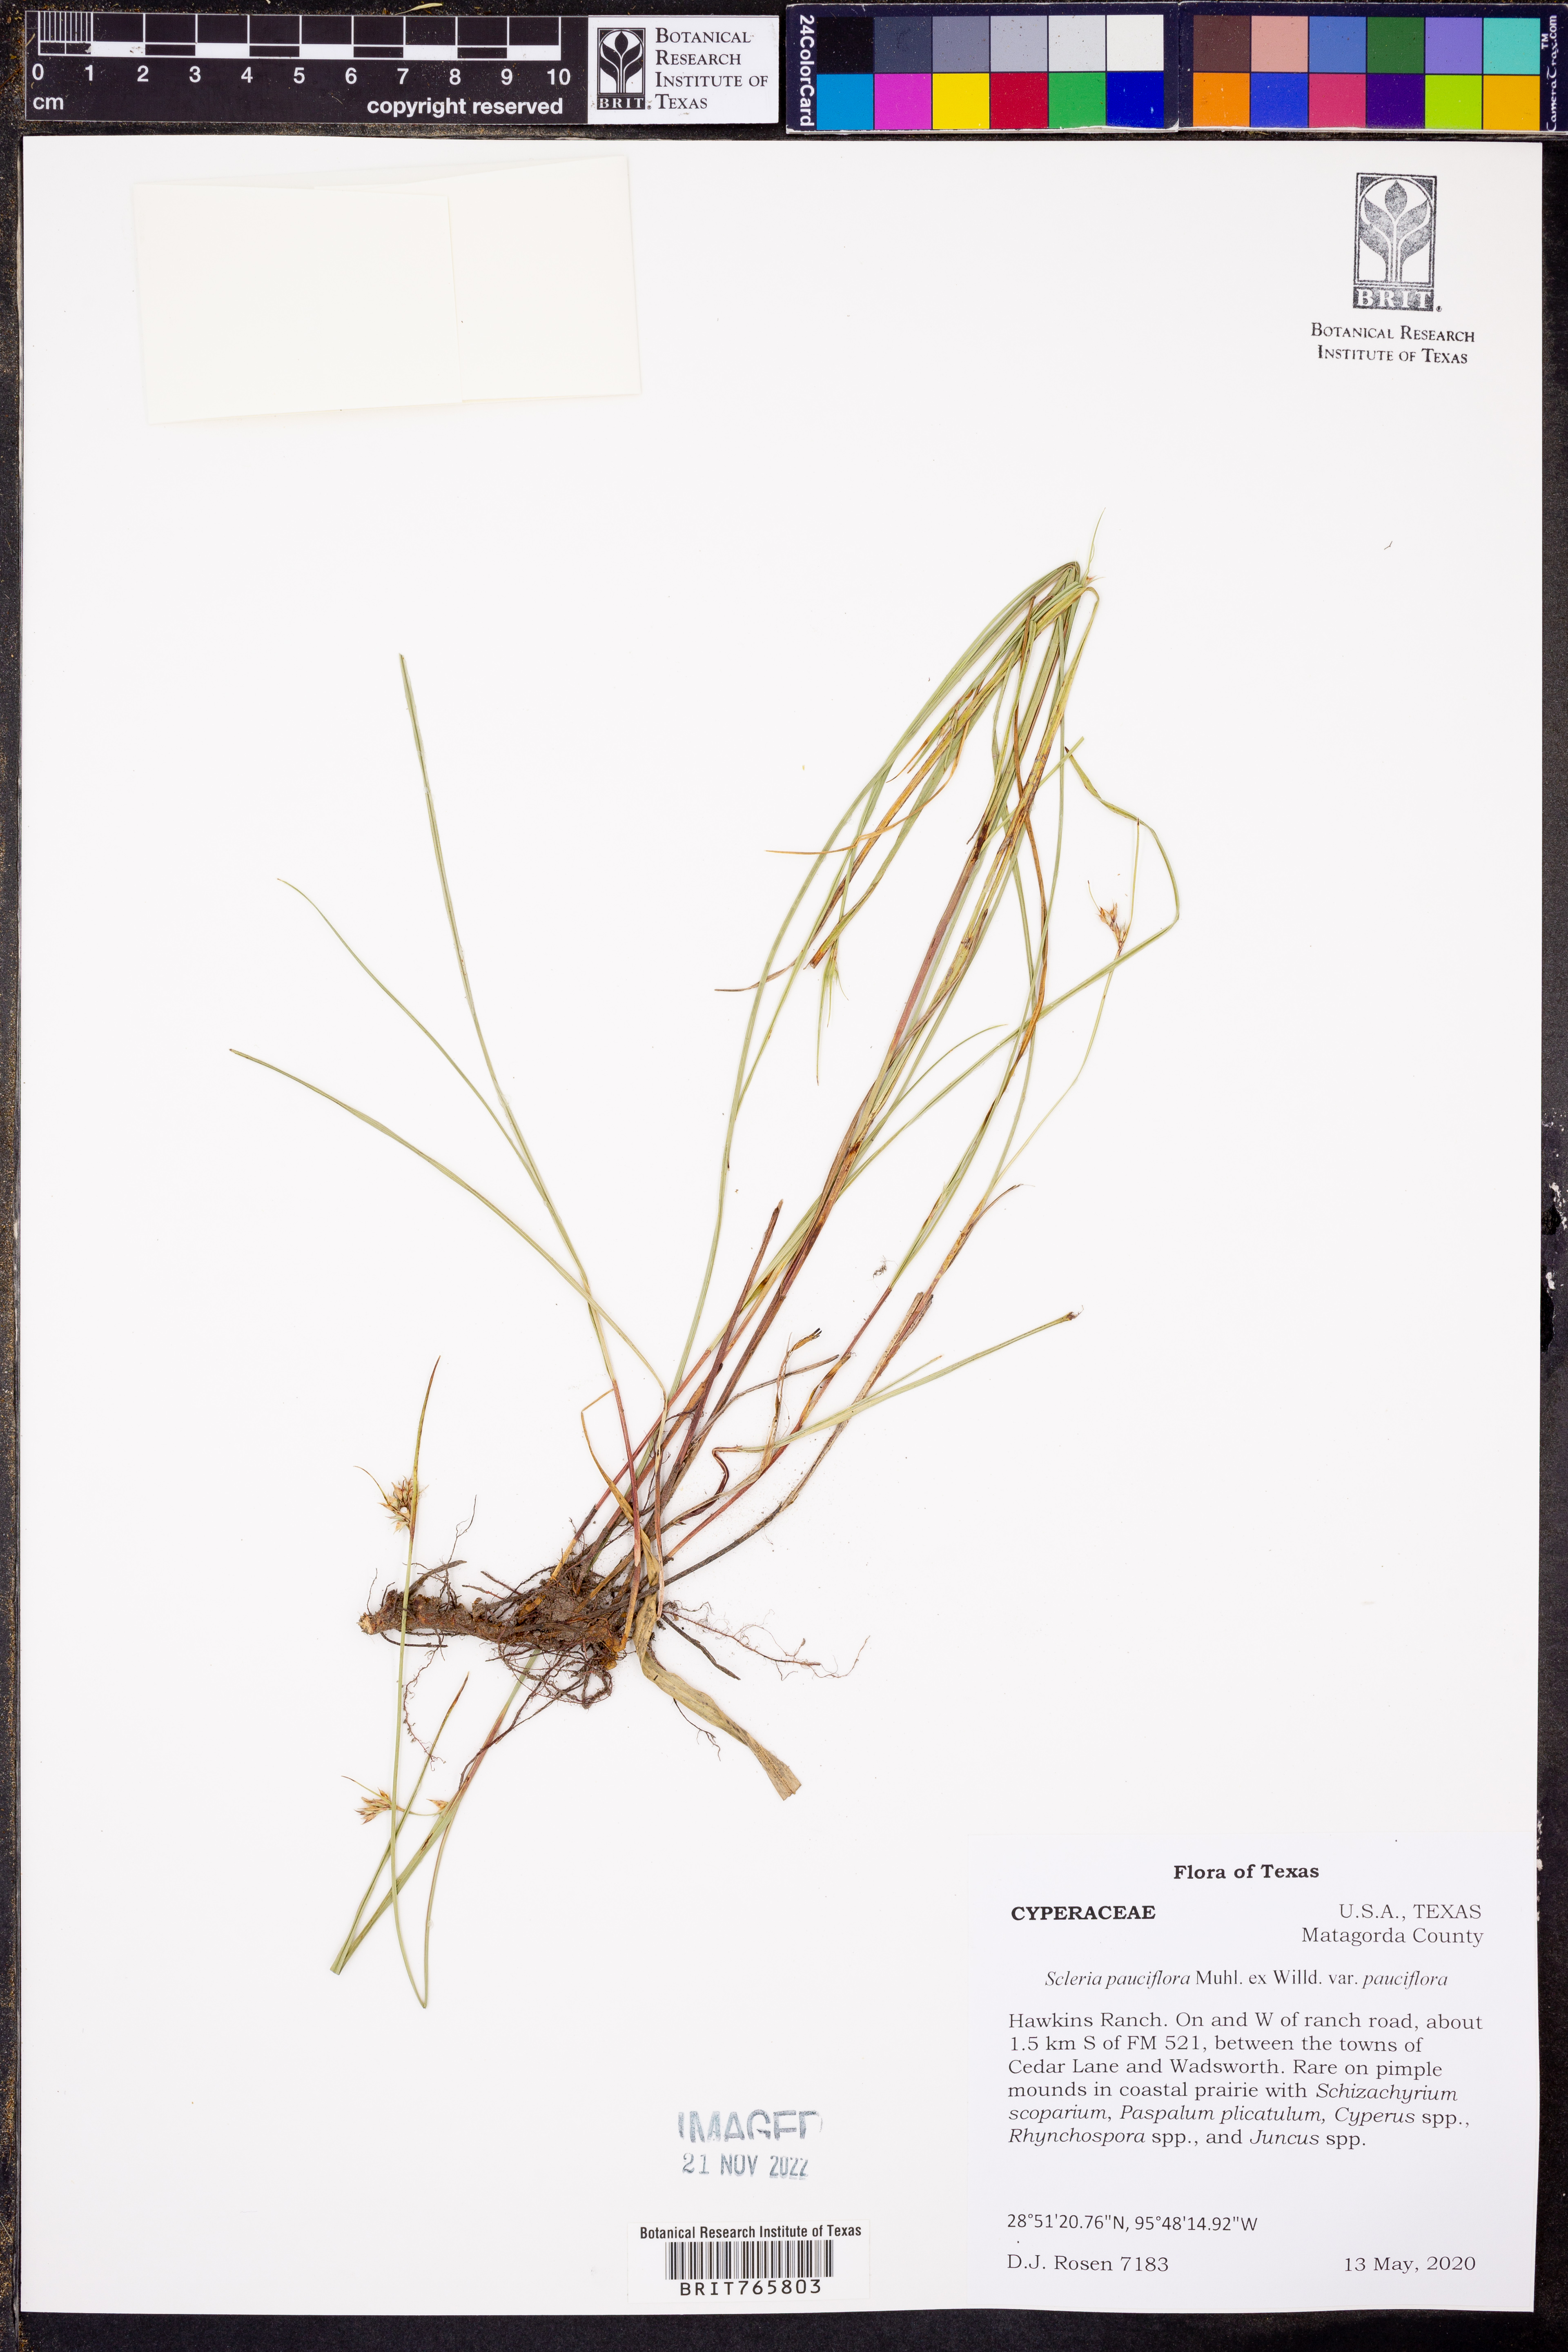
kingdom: Plantae
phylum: Tracheophyta
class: Liliopsida
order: Poales
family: Cyperaceae
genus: Scleria
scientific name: Scleria pauciflora
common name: Few-flowered nutrush
